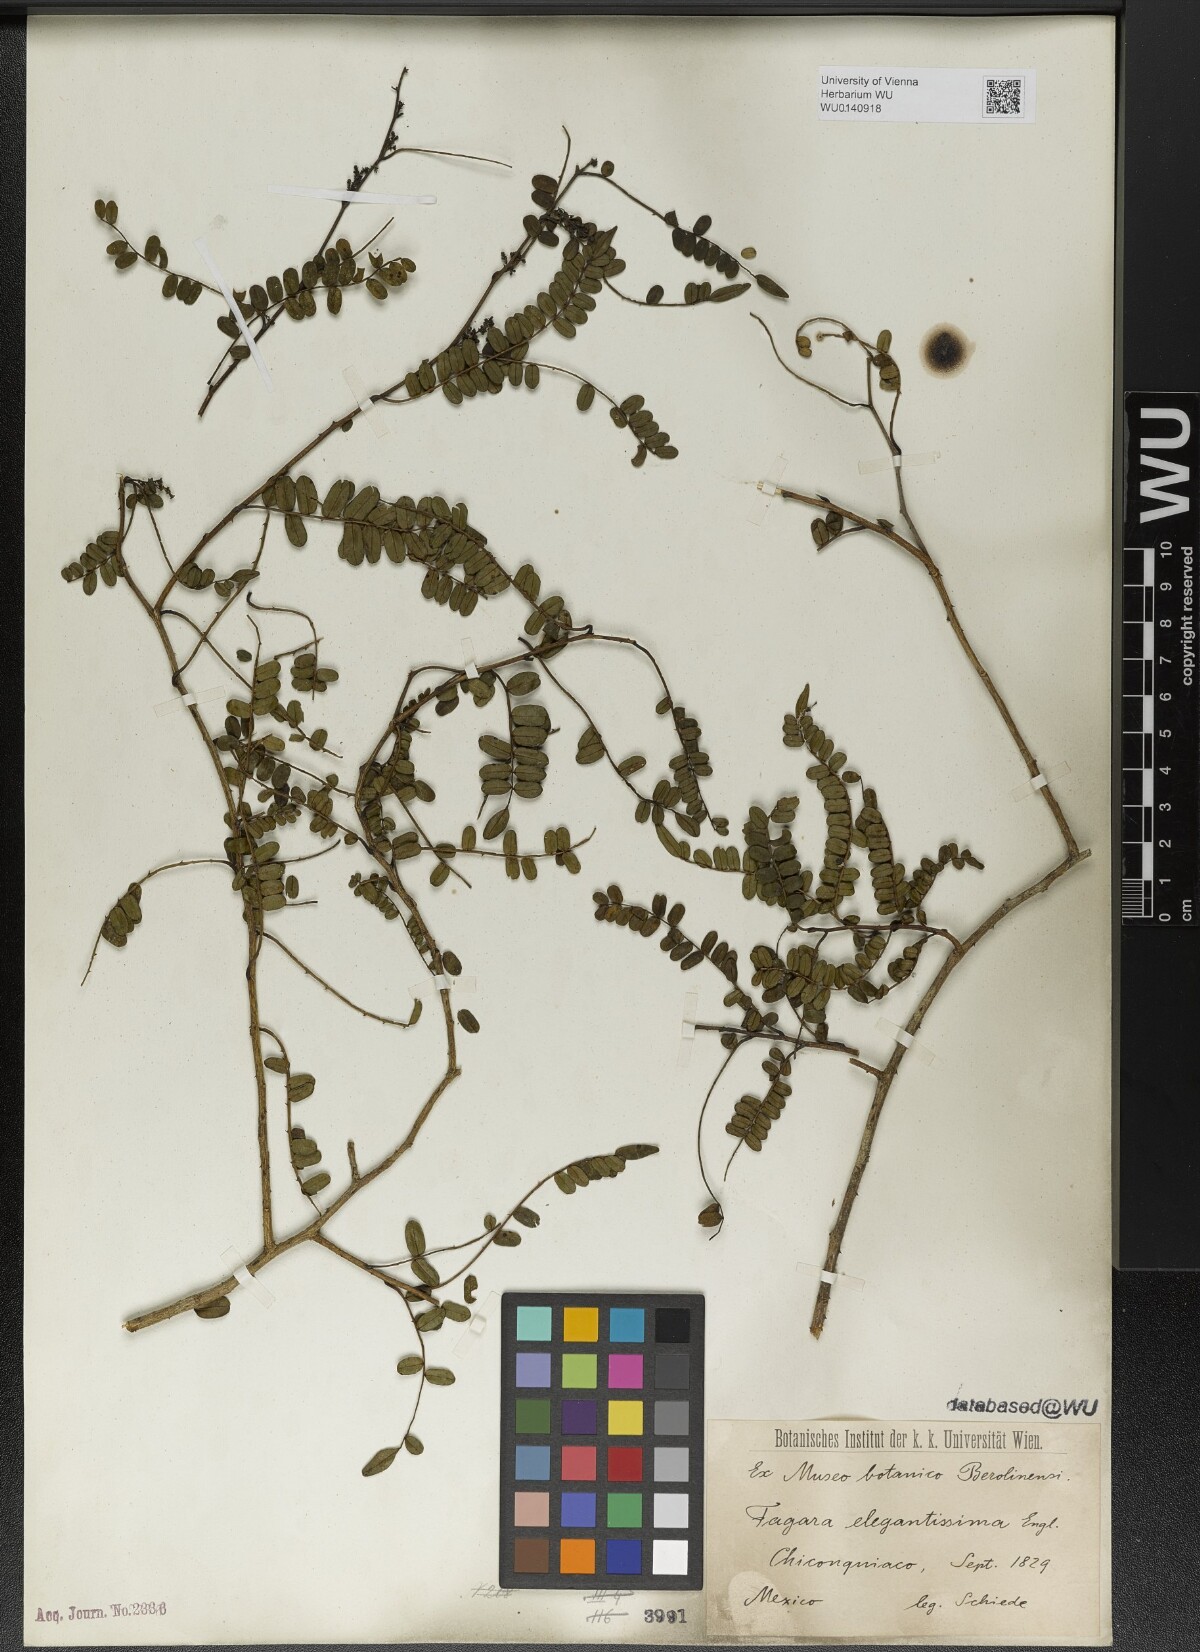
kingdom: Plantae
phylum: Tracheophyta
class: Magnoliopsida
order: Sapindales
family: Rutaceae
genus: Zanthoxylum
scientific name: Zanthoxylum foliolosum
